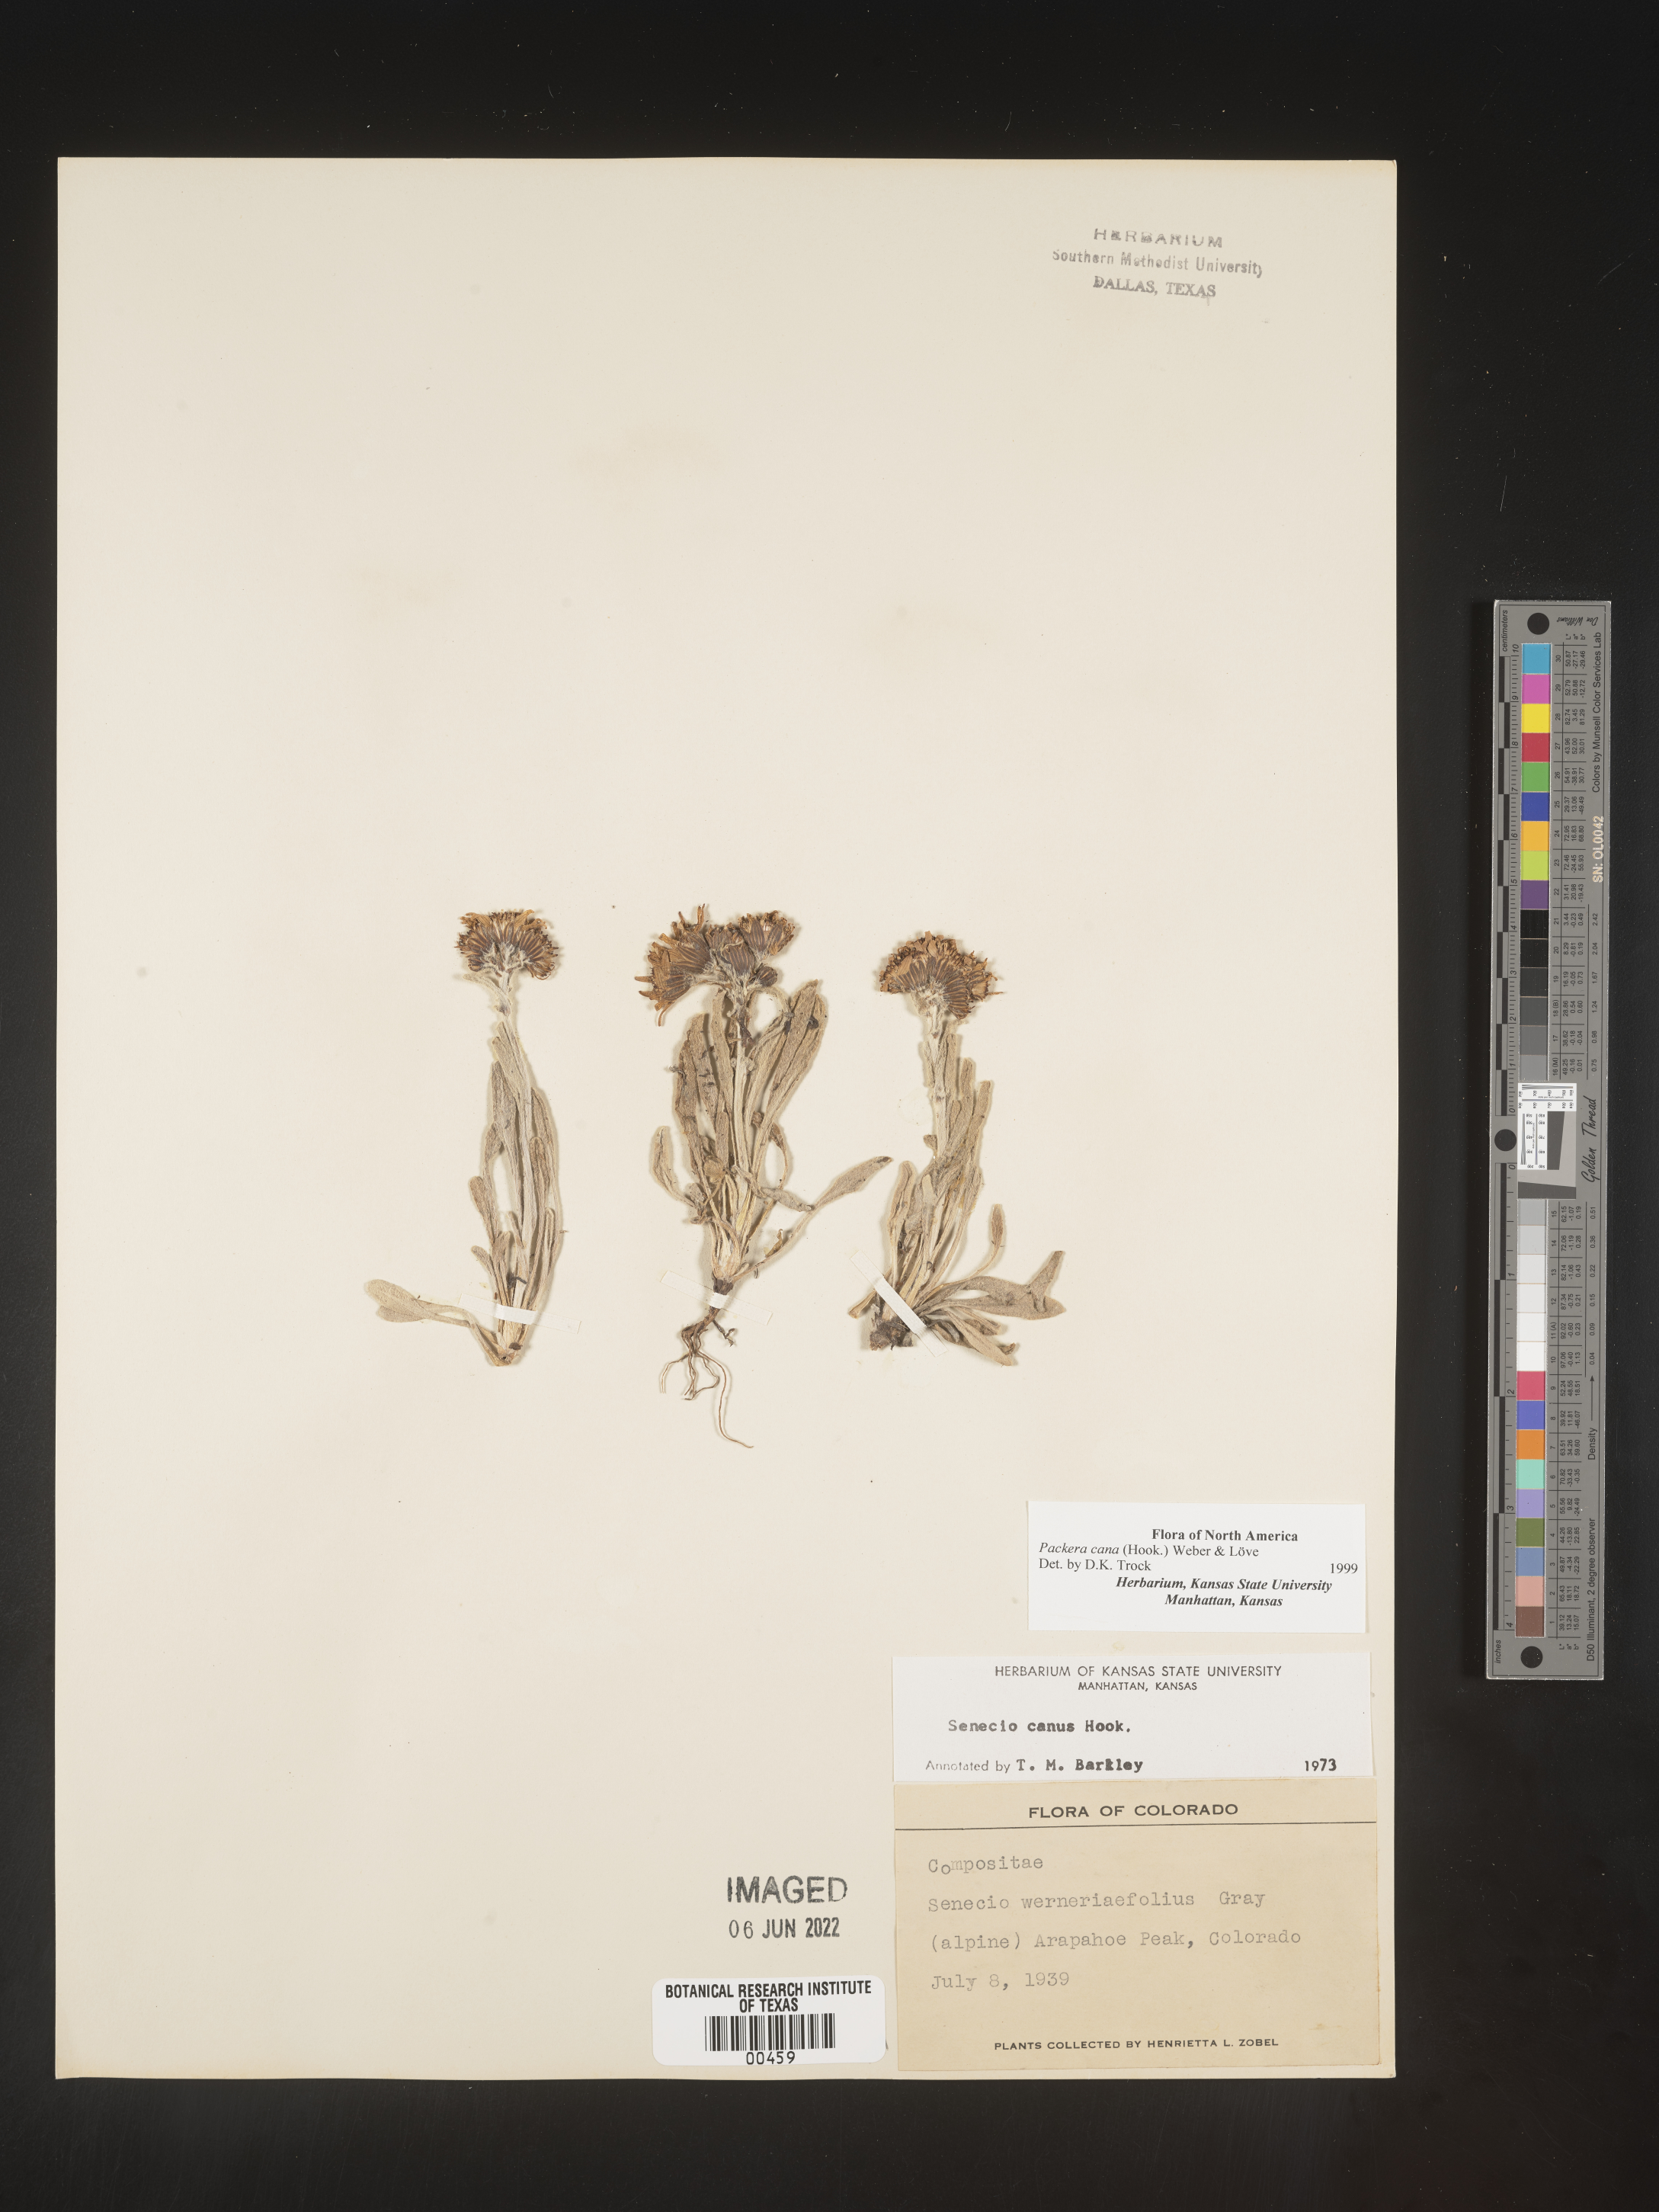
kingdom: Plantae
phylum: Tracheophyta
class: Magnoliopsida
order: Asterales
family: Asteraceae
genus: Packera
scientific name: Packera cana
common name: Woolly groundsel
